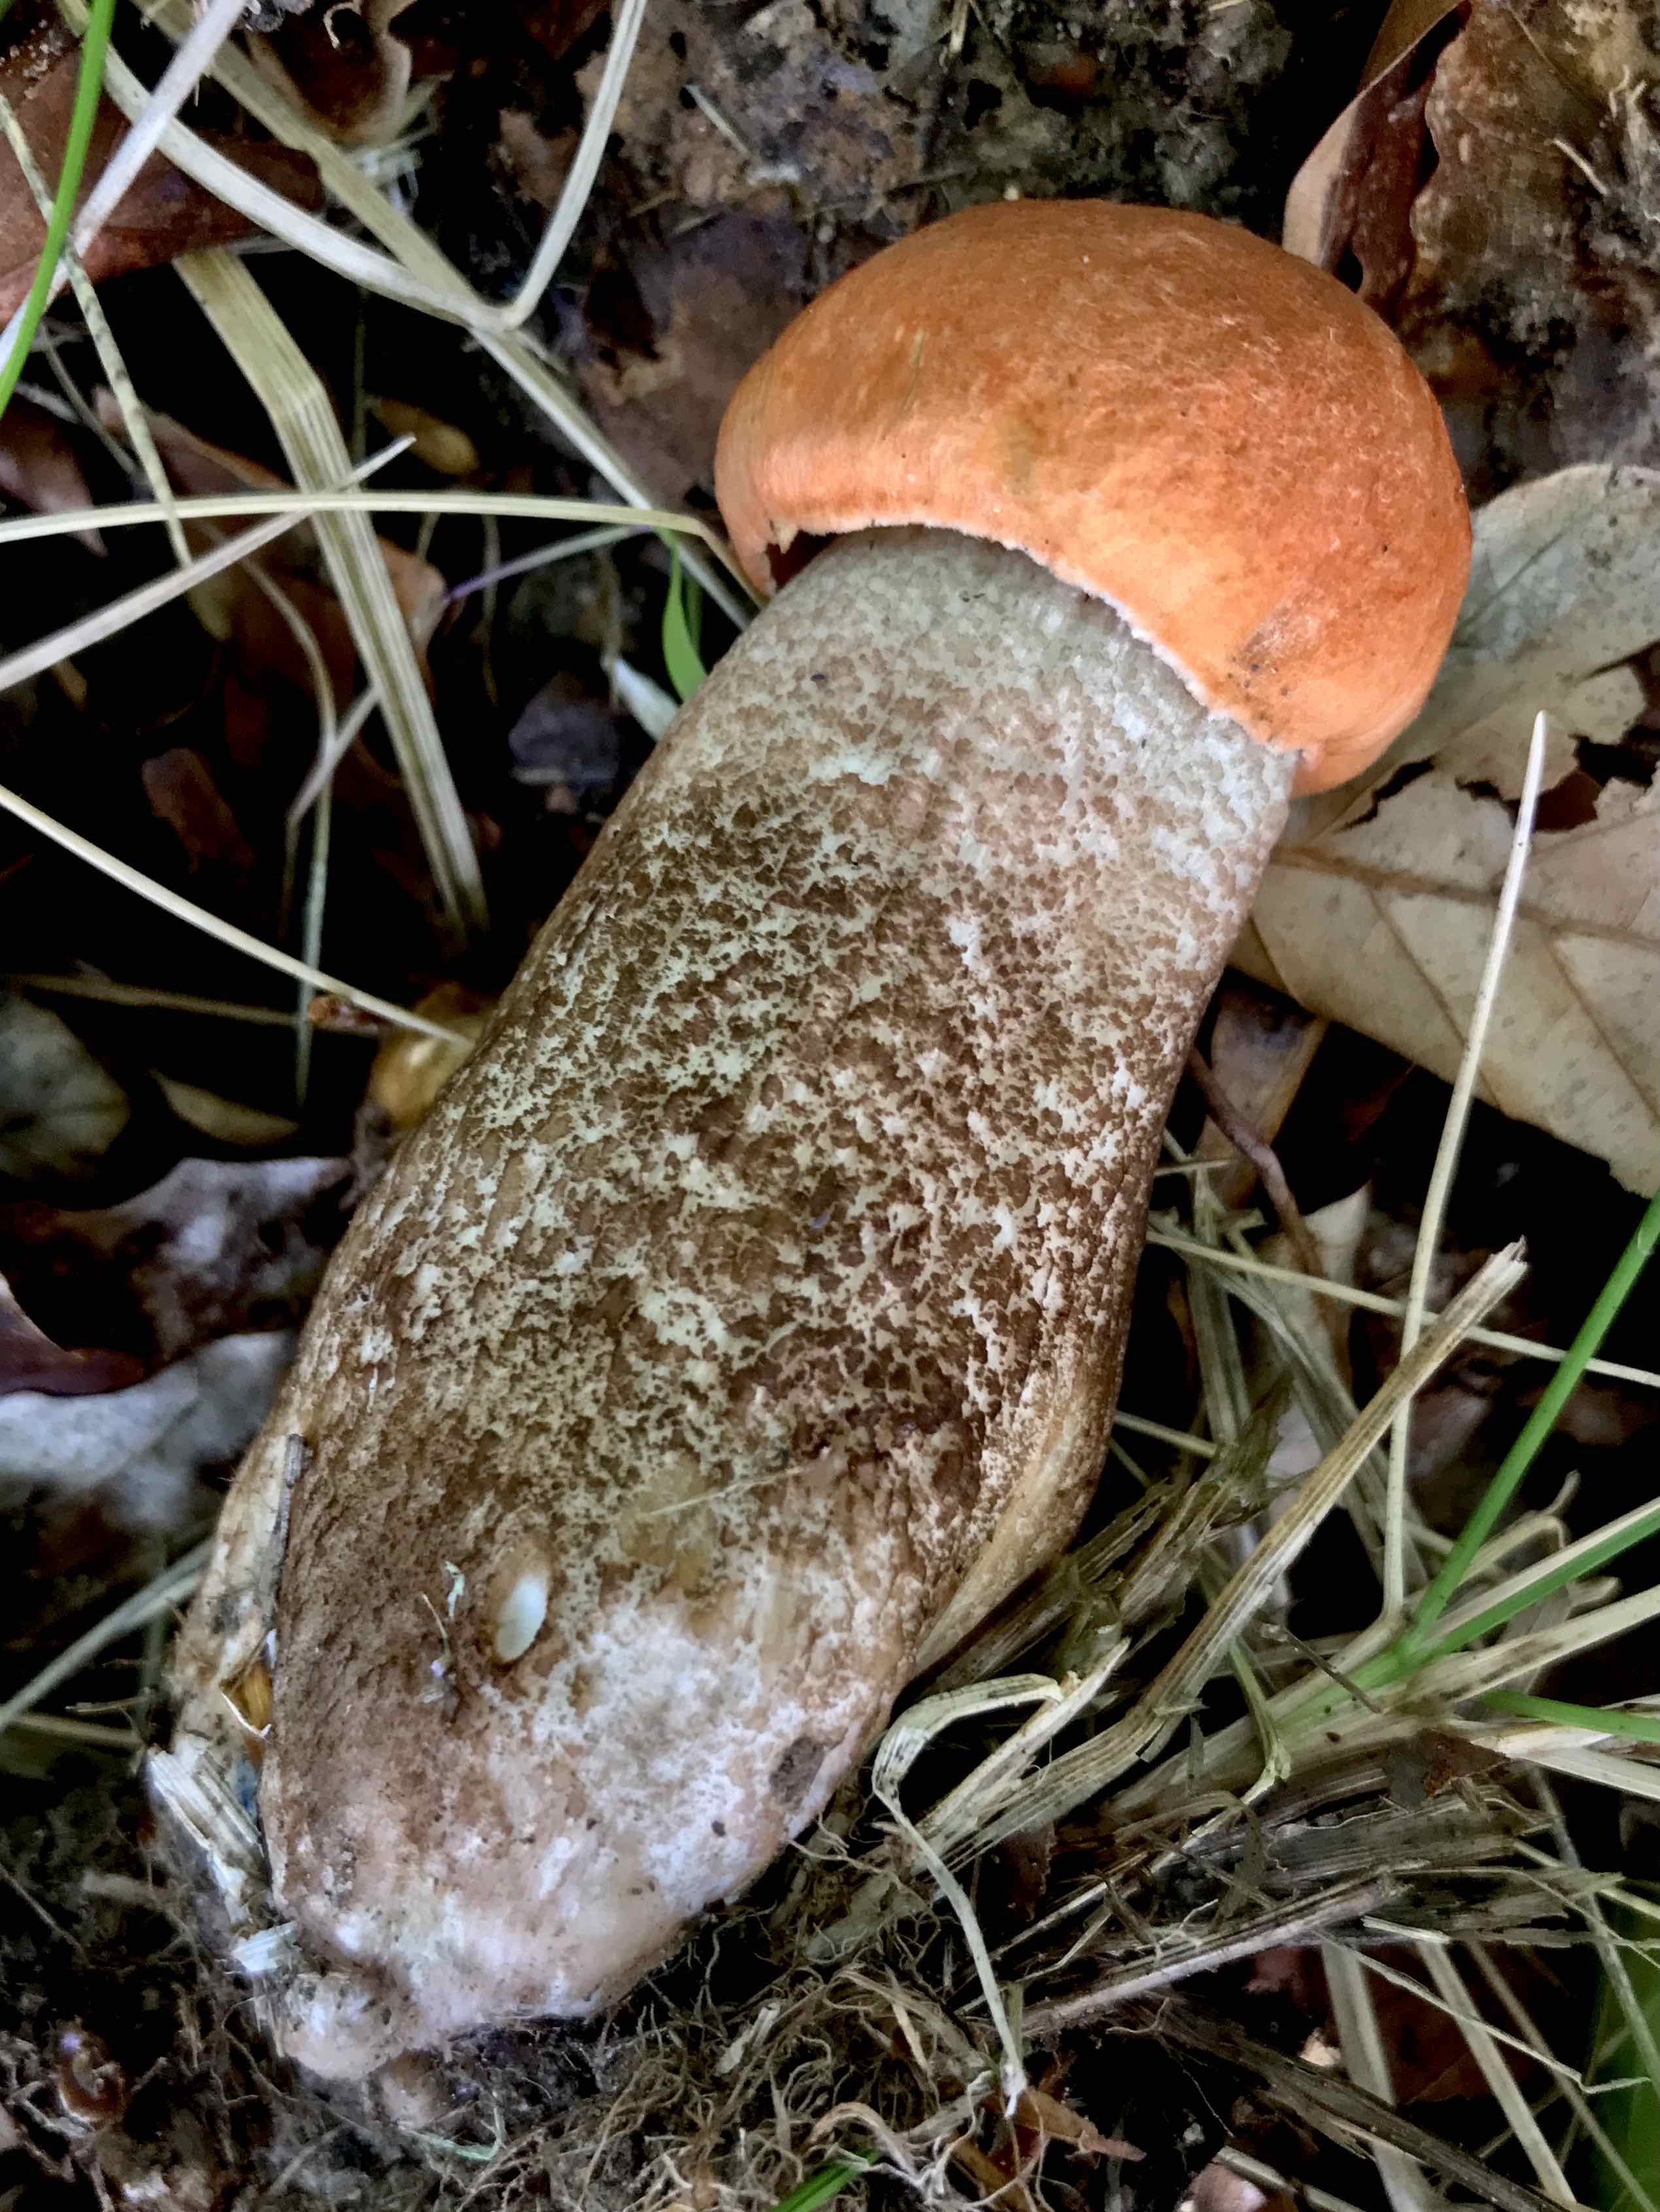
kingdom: Fungi
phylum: Basidiomycota
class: Agaricomycetes
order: Boletales
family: Boletaceae
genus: Leccinum
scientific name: Leccinum aurantiacum
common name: rustrød skælrørhat
